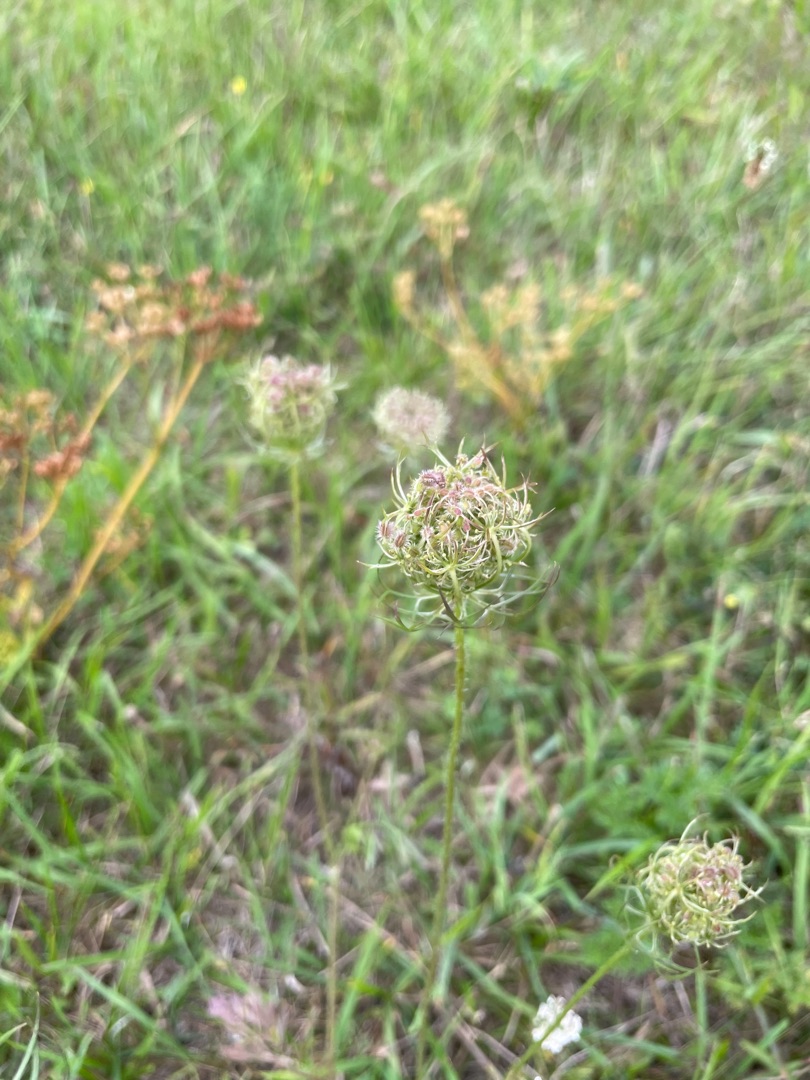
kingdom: Plantae
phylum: Tracheophyta
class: Magnoliopsida
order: Apiales
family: Apiaceae
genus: Daucus
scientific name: Daucus carota
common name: Vild gulerod
